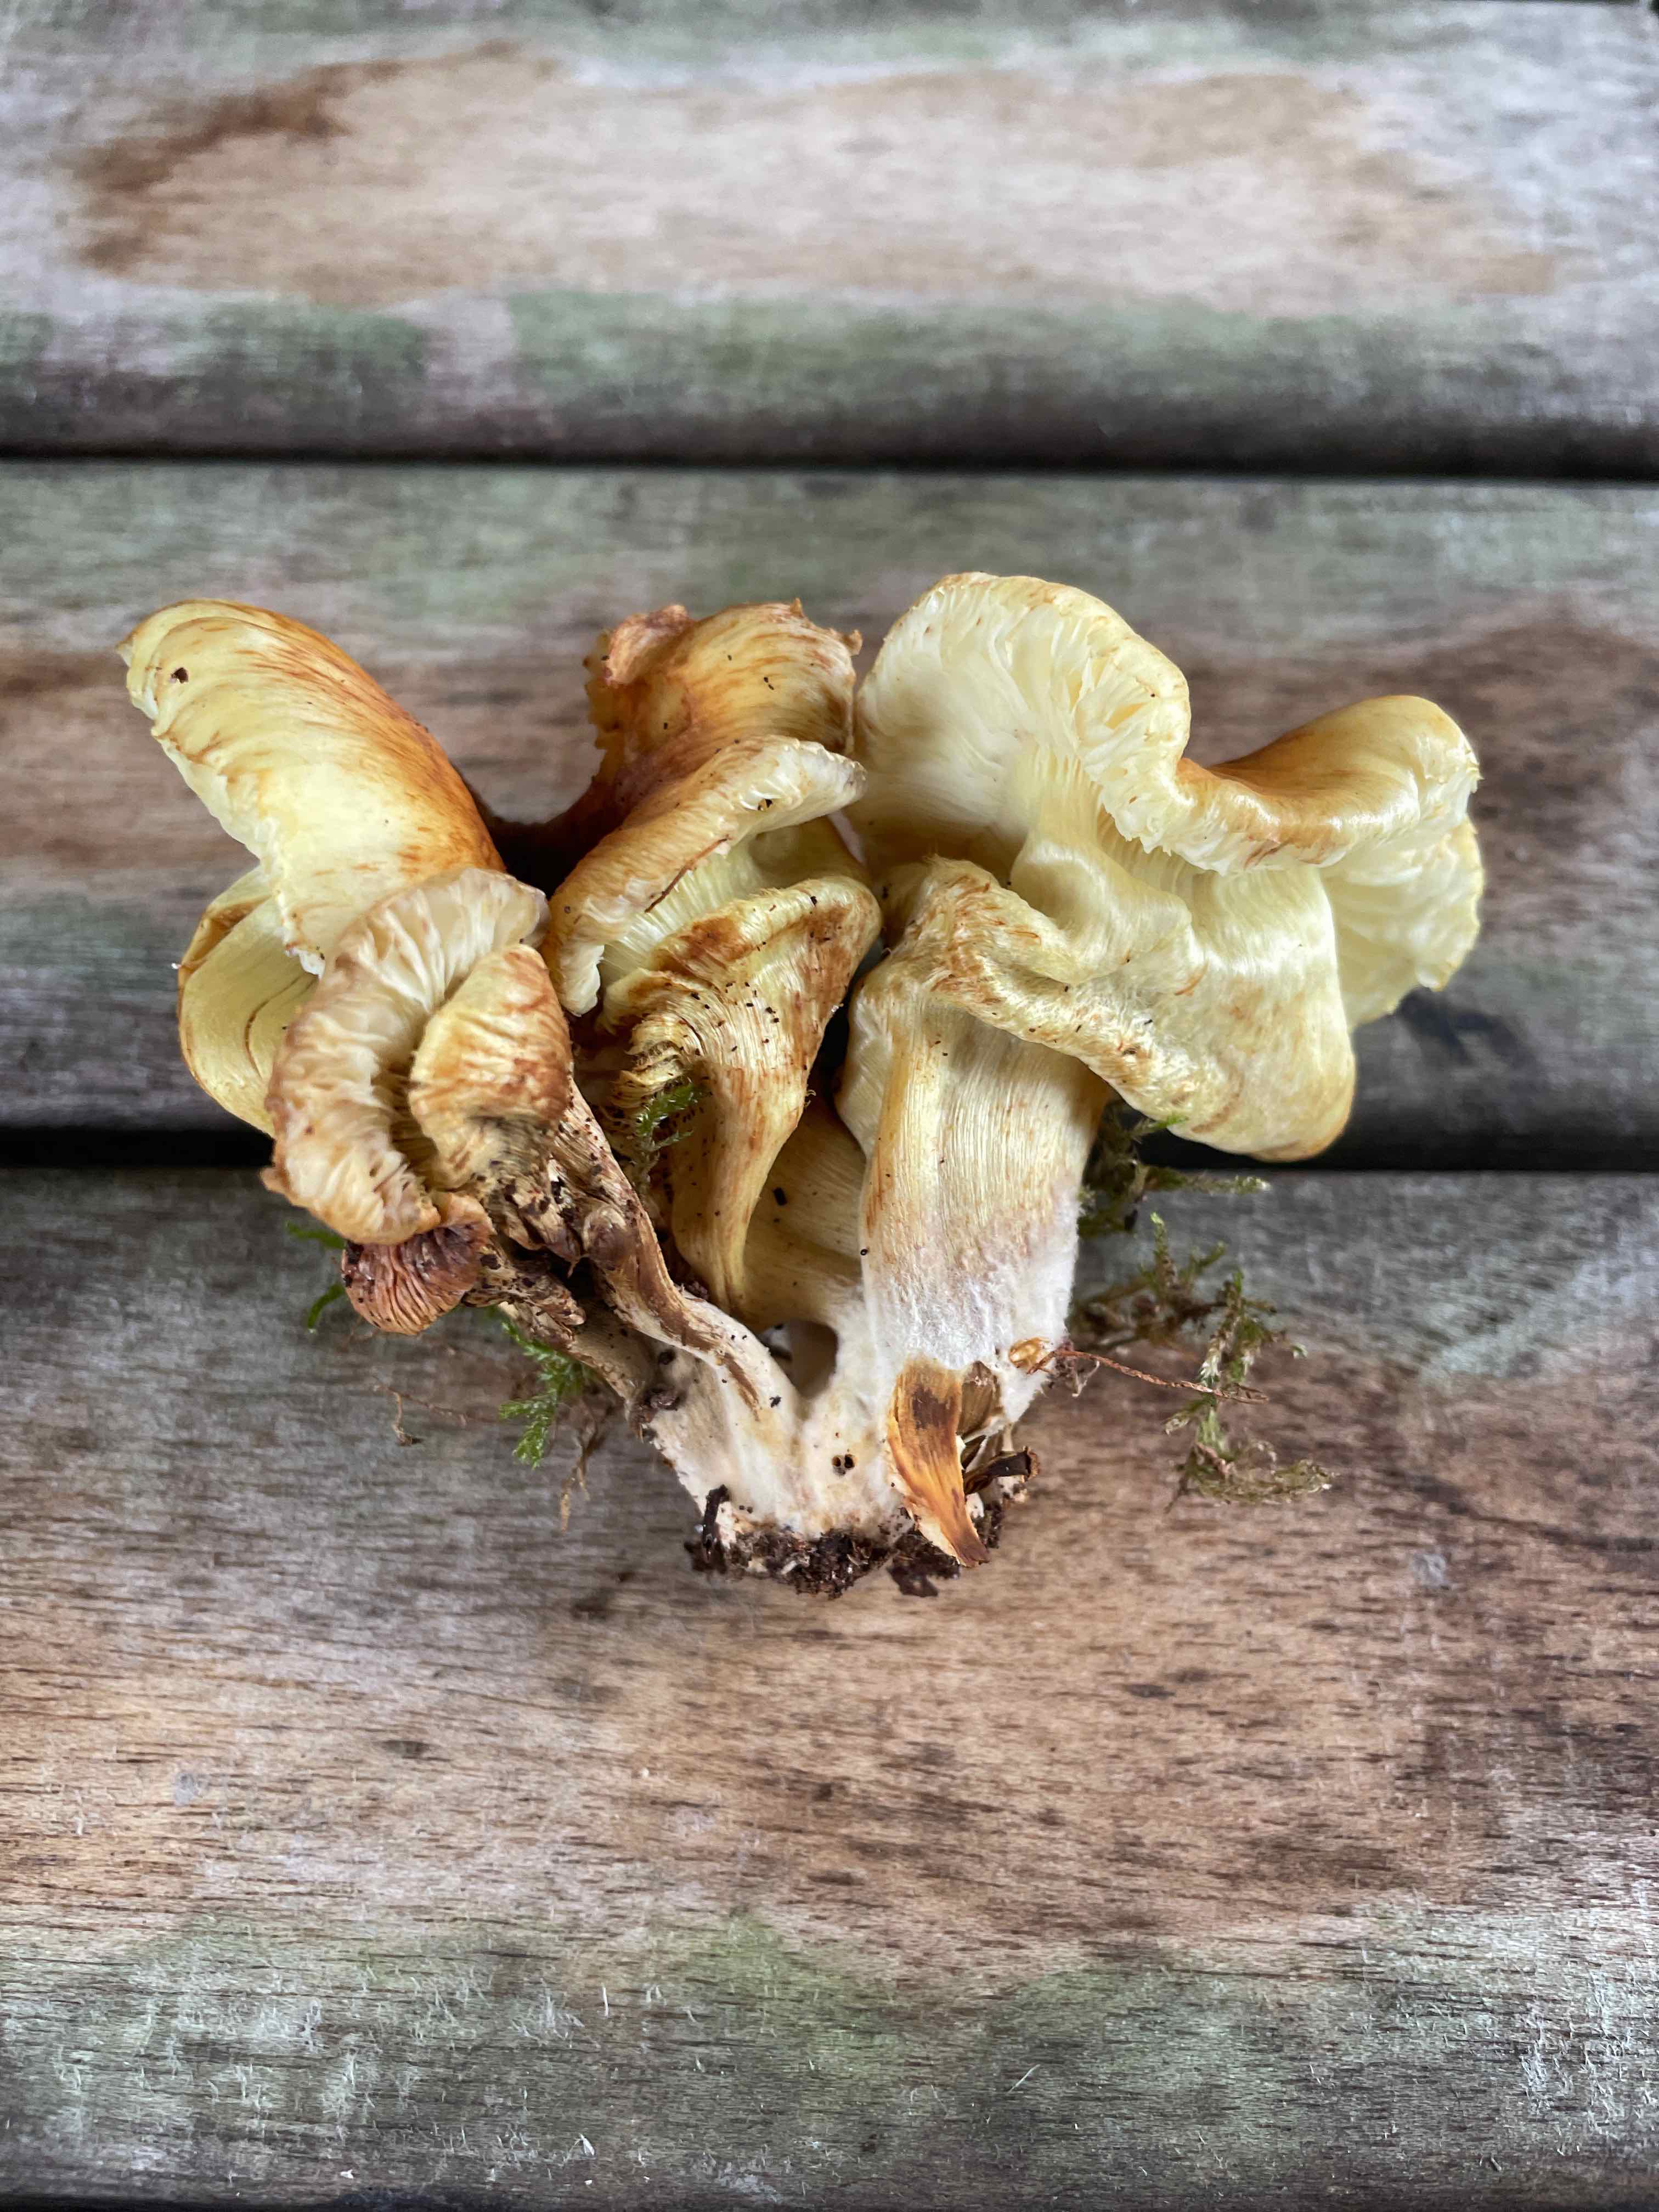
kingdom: Fungi
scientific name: Fungi
